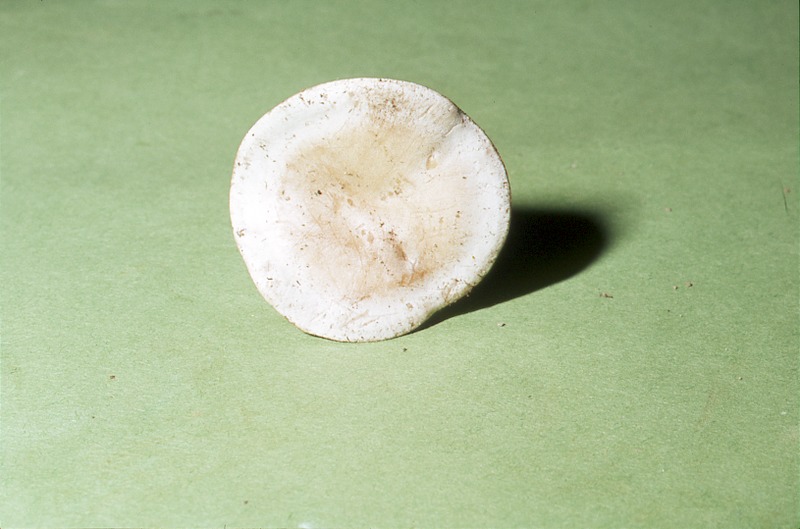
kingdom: Fungi
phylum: Basidiomycota
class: Agaricomycetes
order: Agaricales
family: Tricholomataceae
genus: Clitocybe
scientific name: Clitocybe rivulosa
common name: Cracking clitocybe
